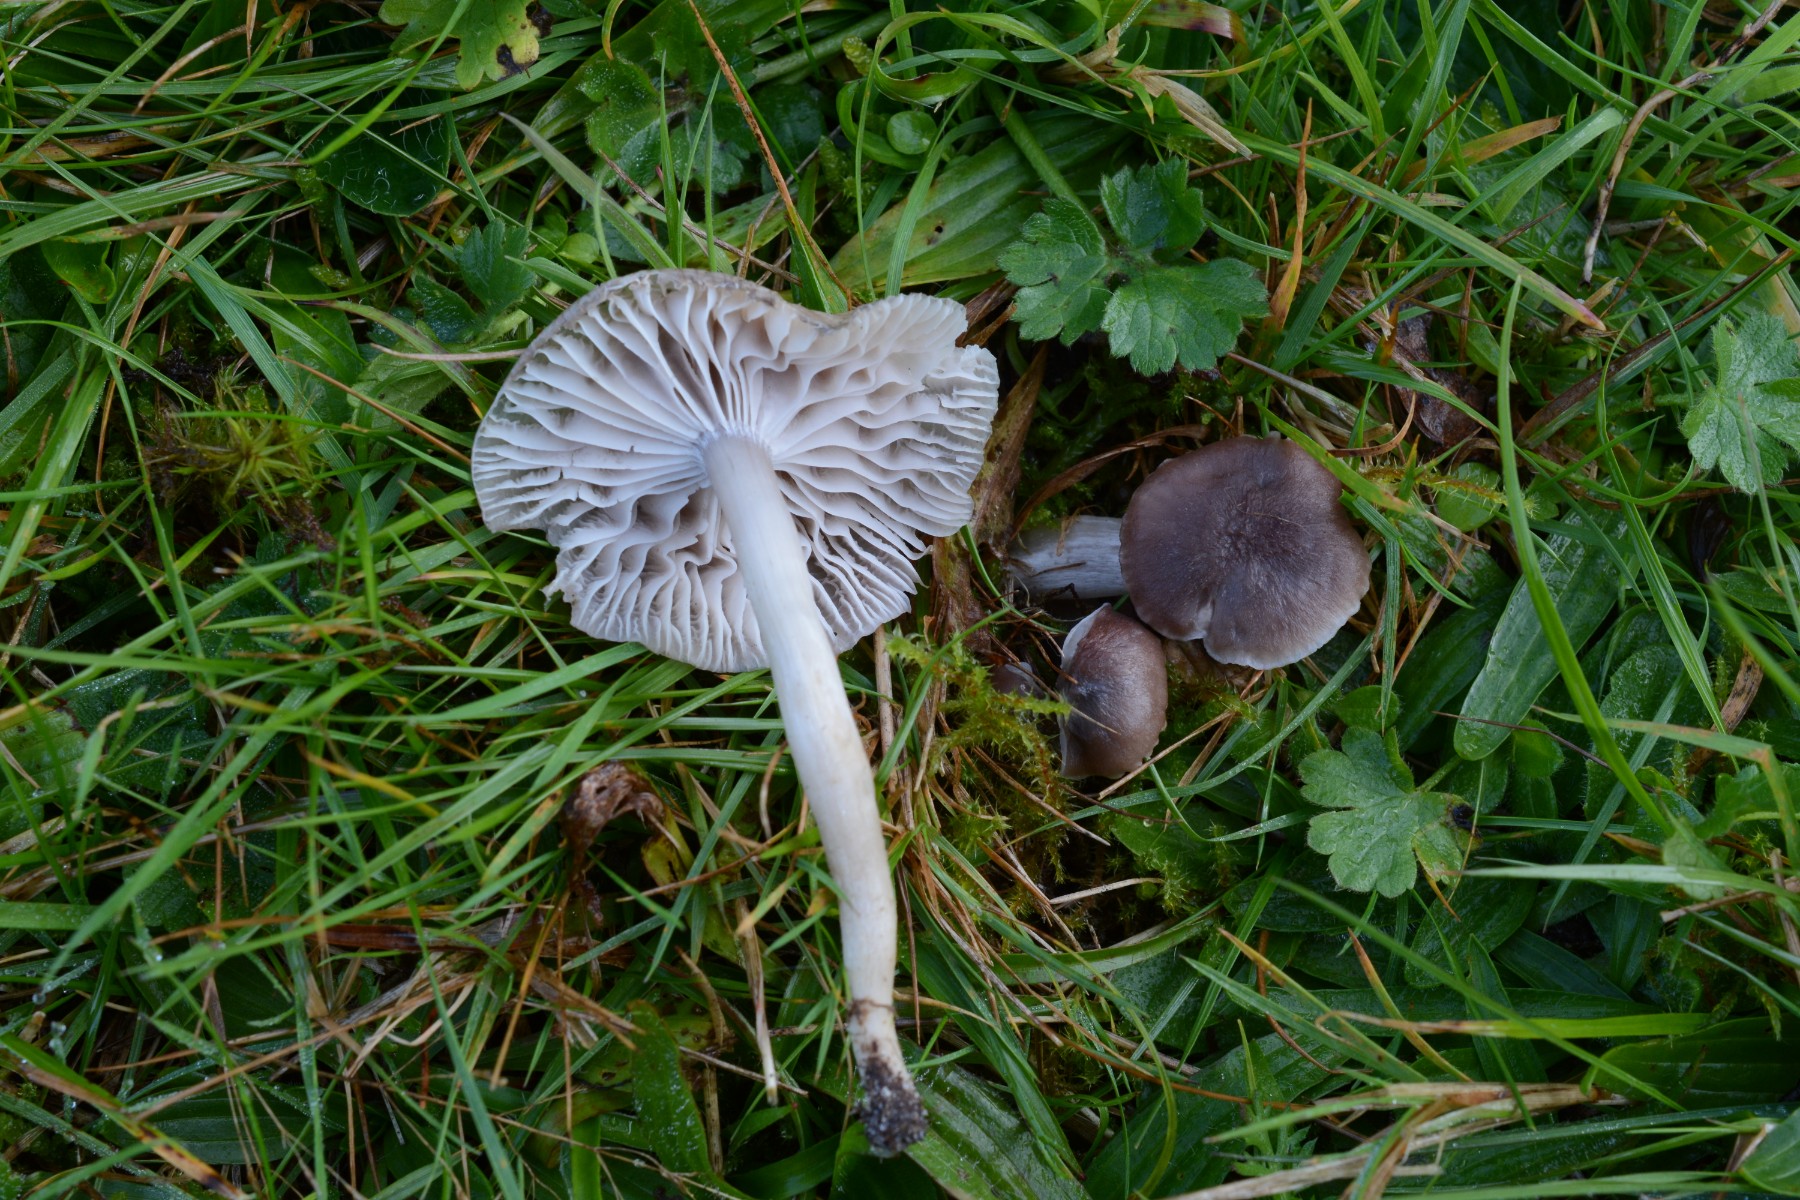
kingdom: Fungi
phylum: Basidiomycota
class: Agaricomycetes
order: Agaricales
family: Hygrophoraceae
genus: Cuphophyllus
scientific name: Cuphophyllus flavipes
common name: gulfodet vokshat
